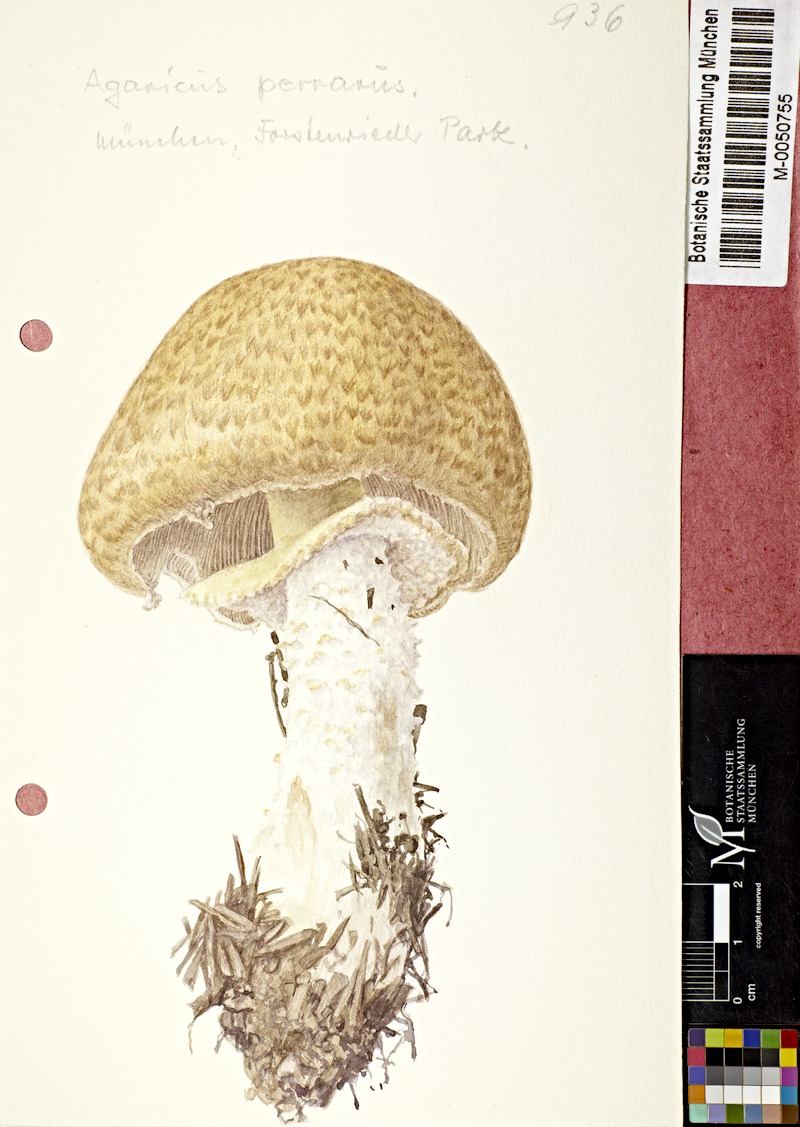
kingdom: Fungi
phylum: Basidiomycota
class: Agaricomycetes
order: Agaricales
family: Agaricaceae
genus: Agaricus
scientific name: Agaricus augustus
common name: Prince
